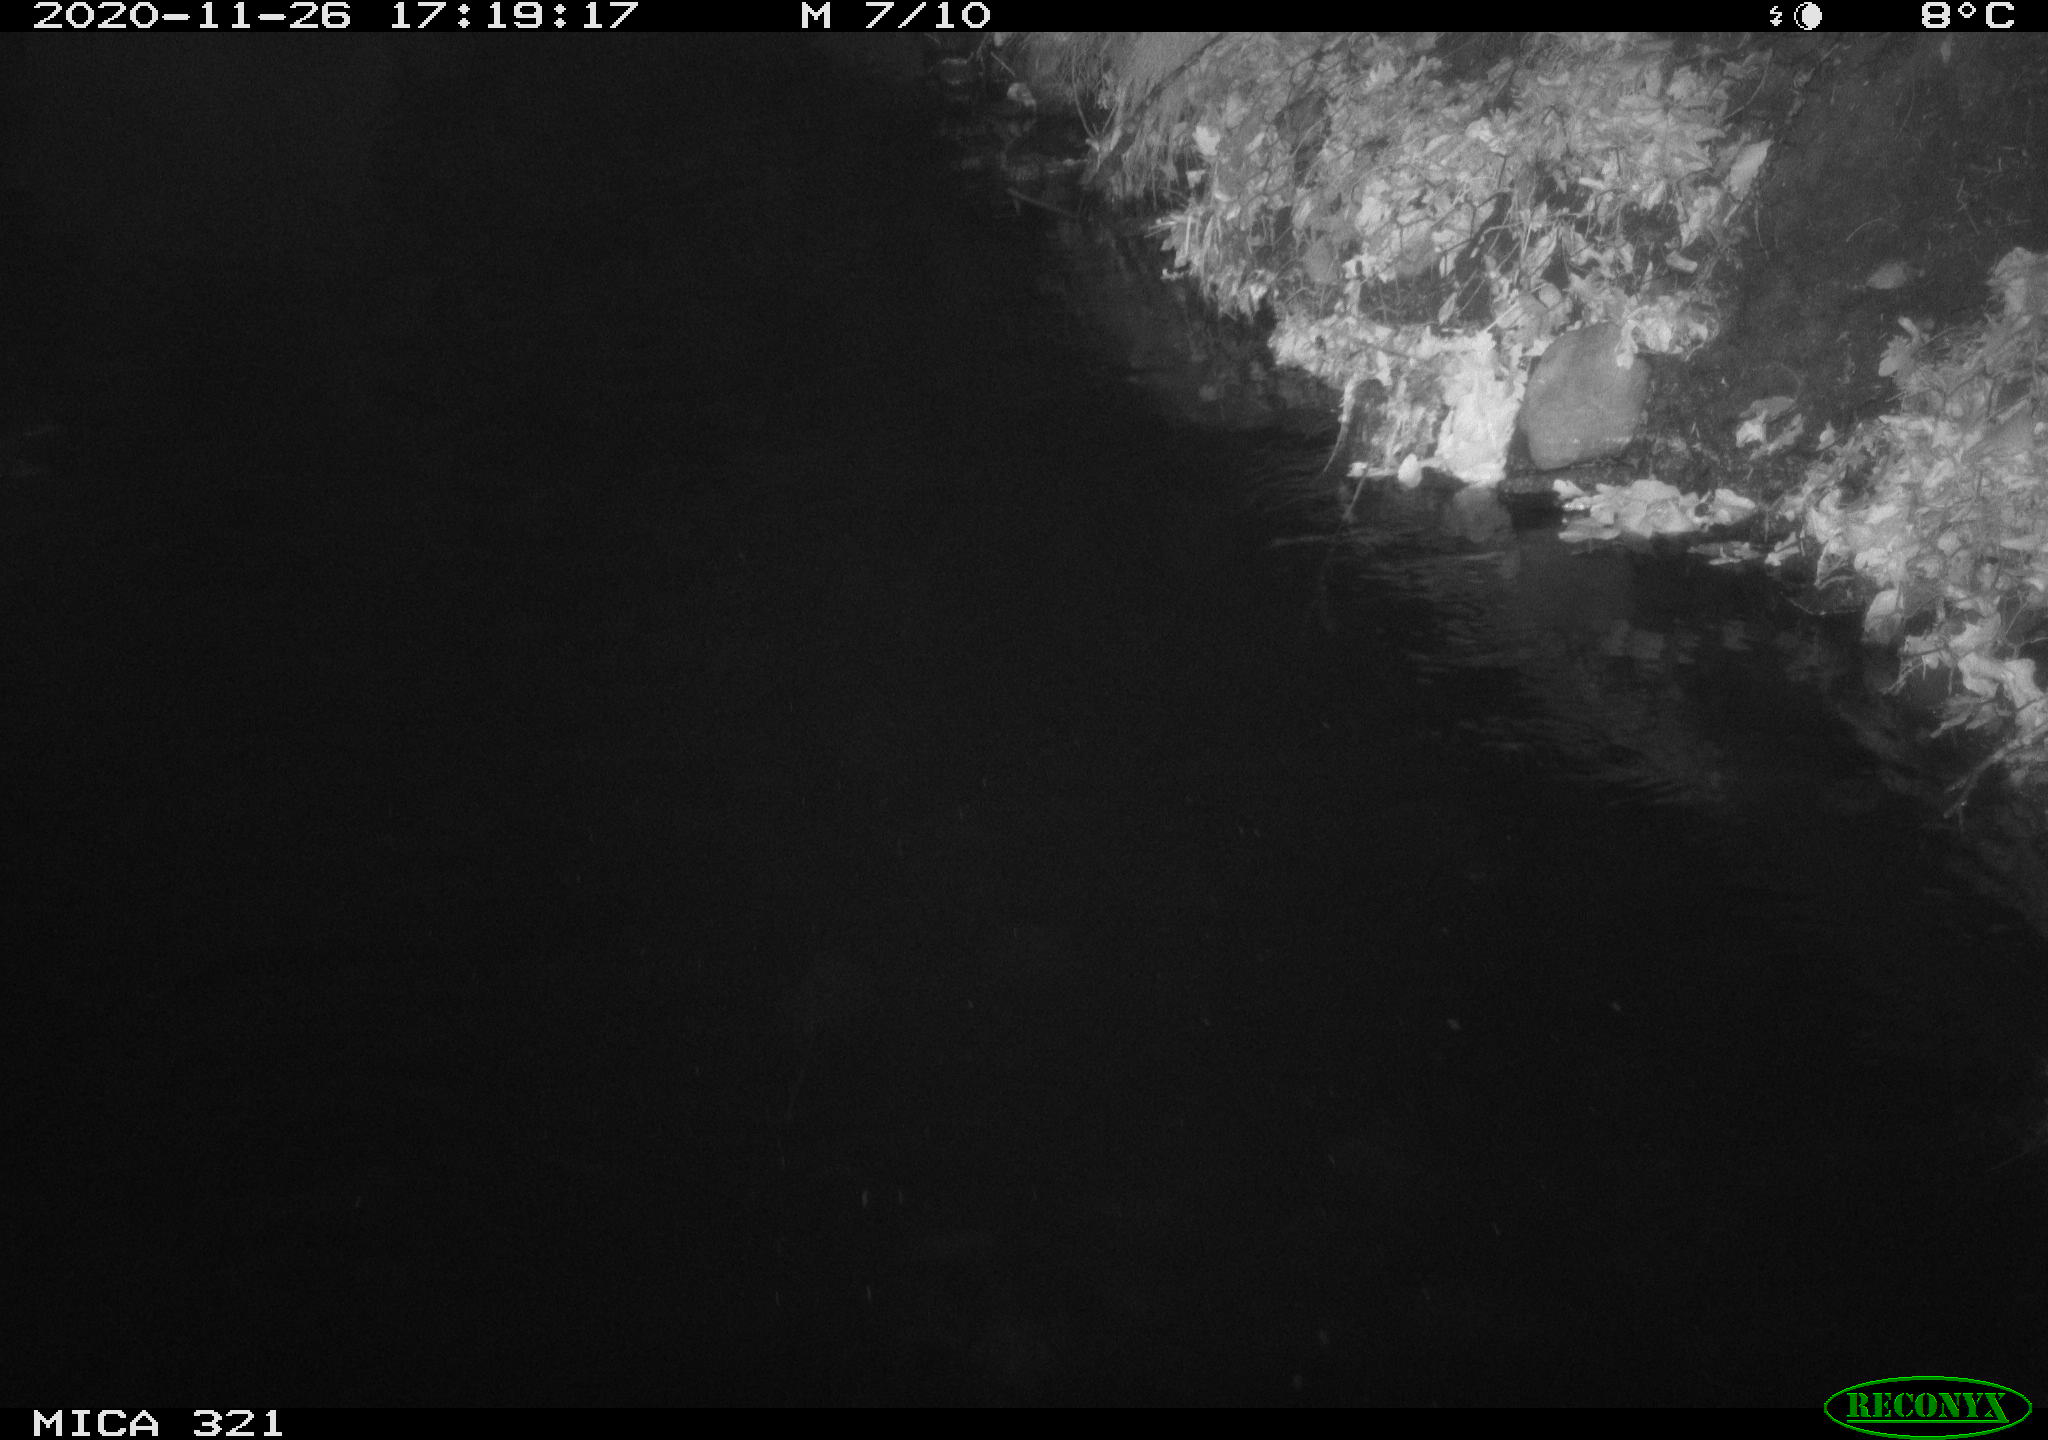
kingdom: Animalia
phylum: Chordata
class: Aves
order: Anseriformes
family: Anatidae
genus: Anas
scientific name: Anas platyrhynchos
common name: Mallard
